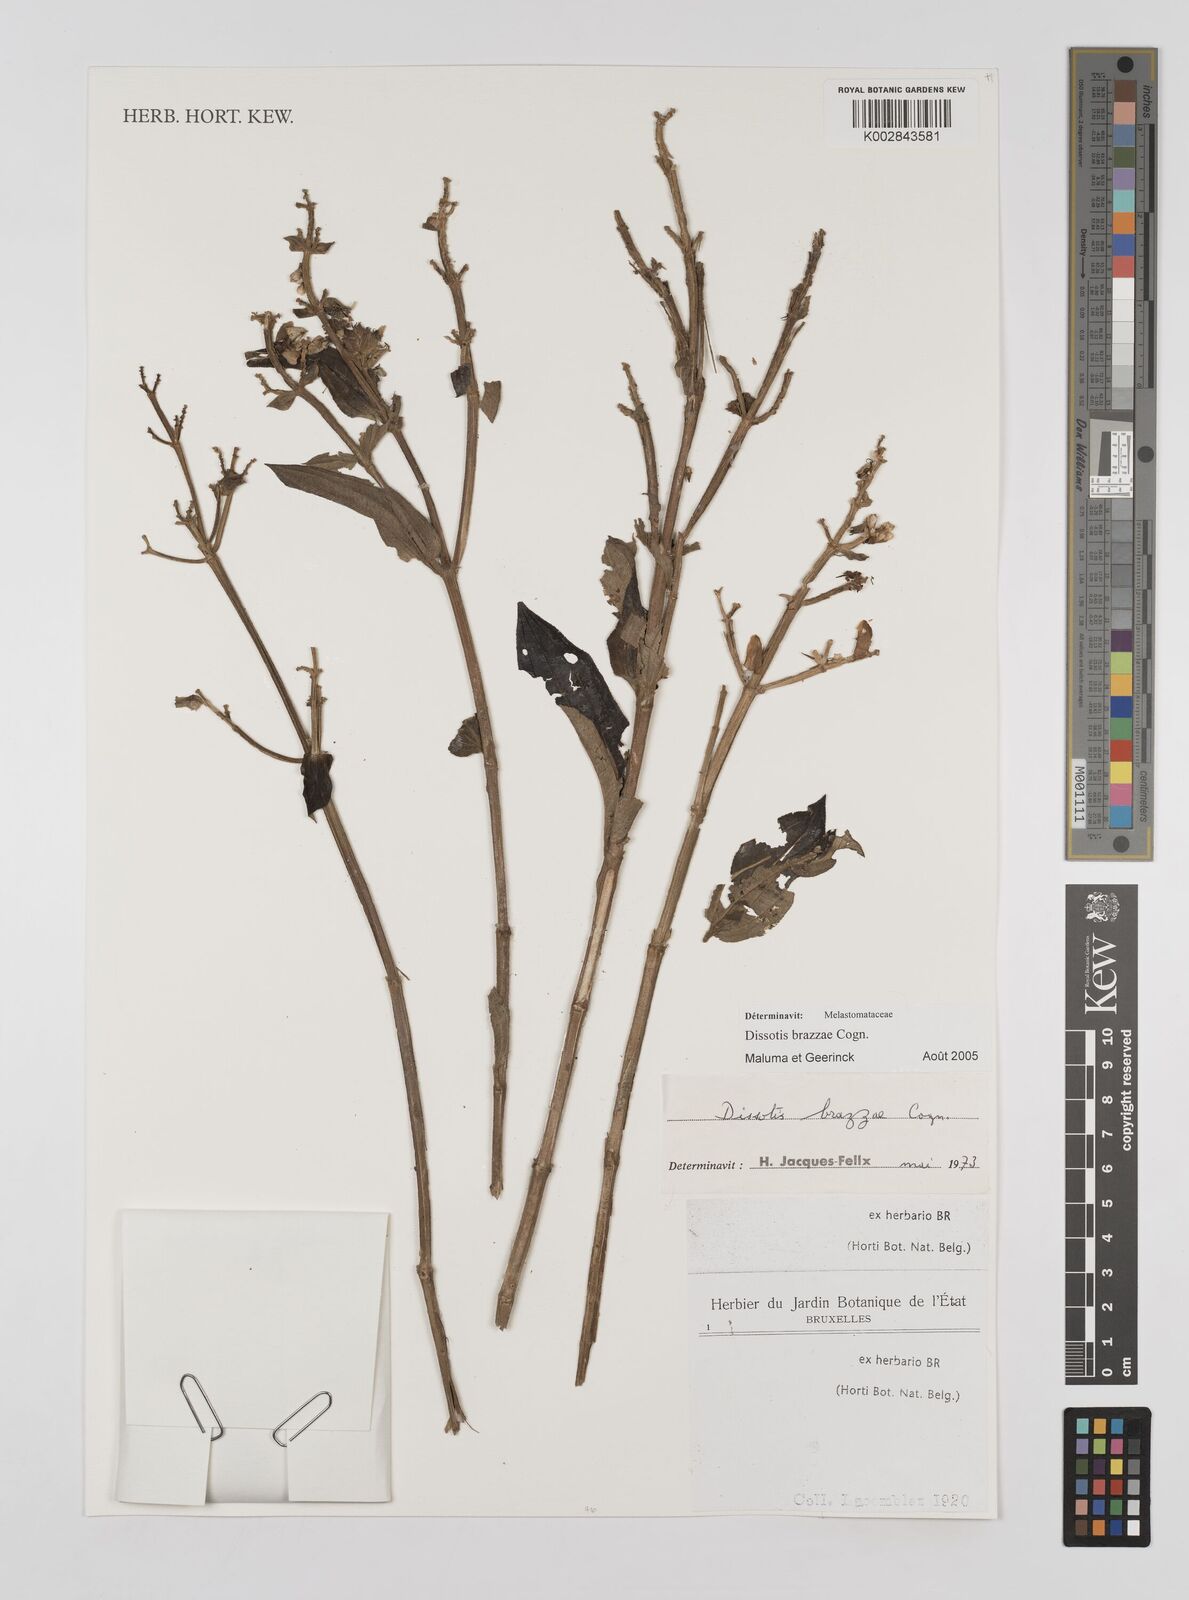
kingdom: Plantae
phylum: Tracheophyta
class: Magnoliopsida
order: Myrtales
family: Melastomataceae
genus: Dupineta
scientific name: Dupineta brazzae
